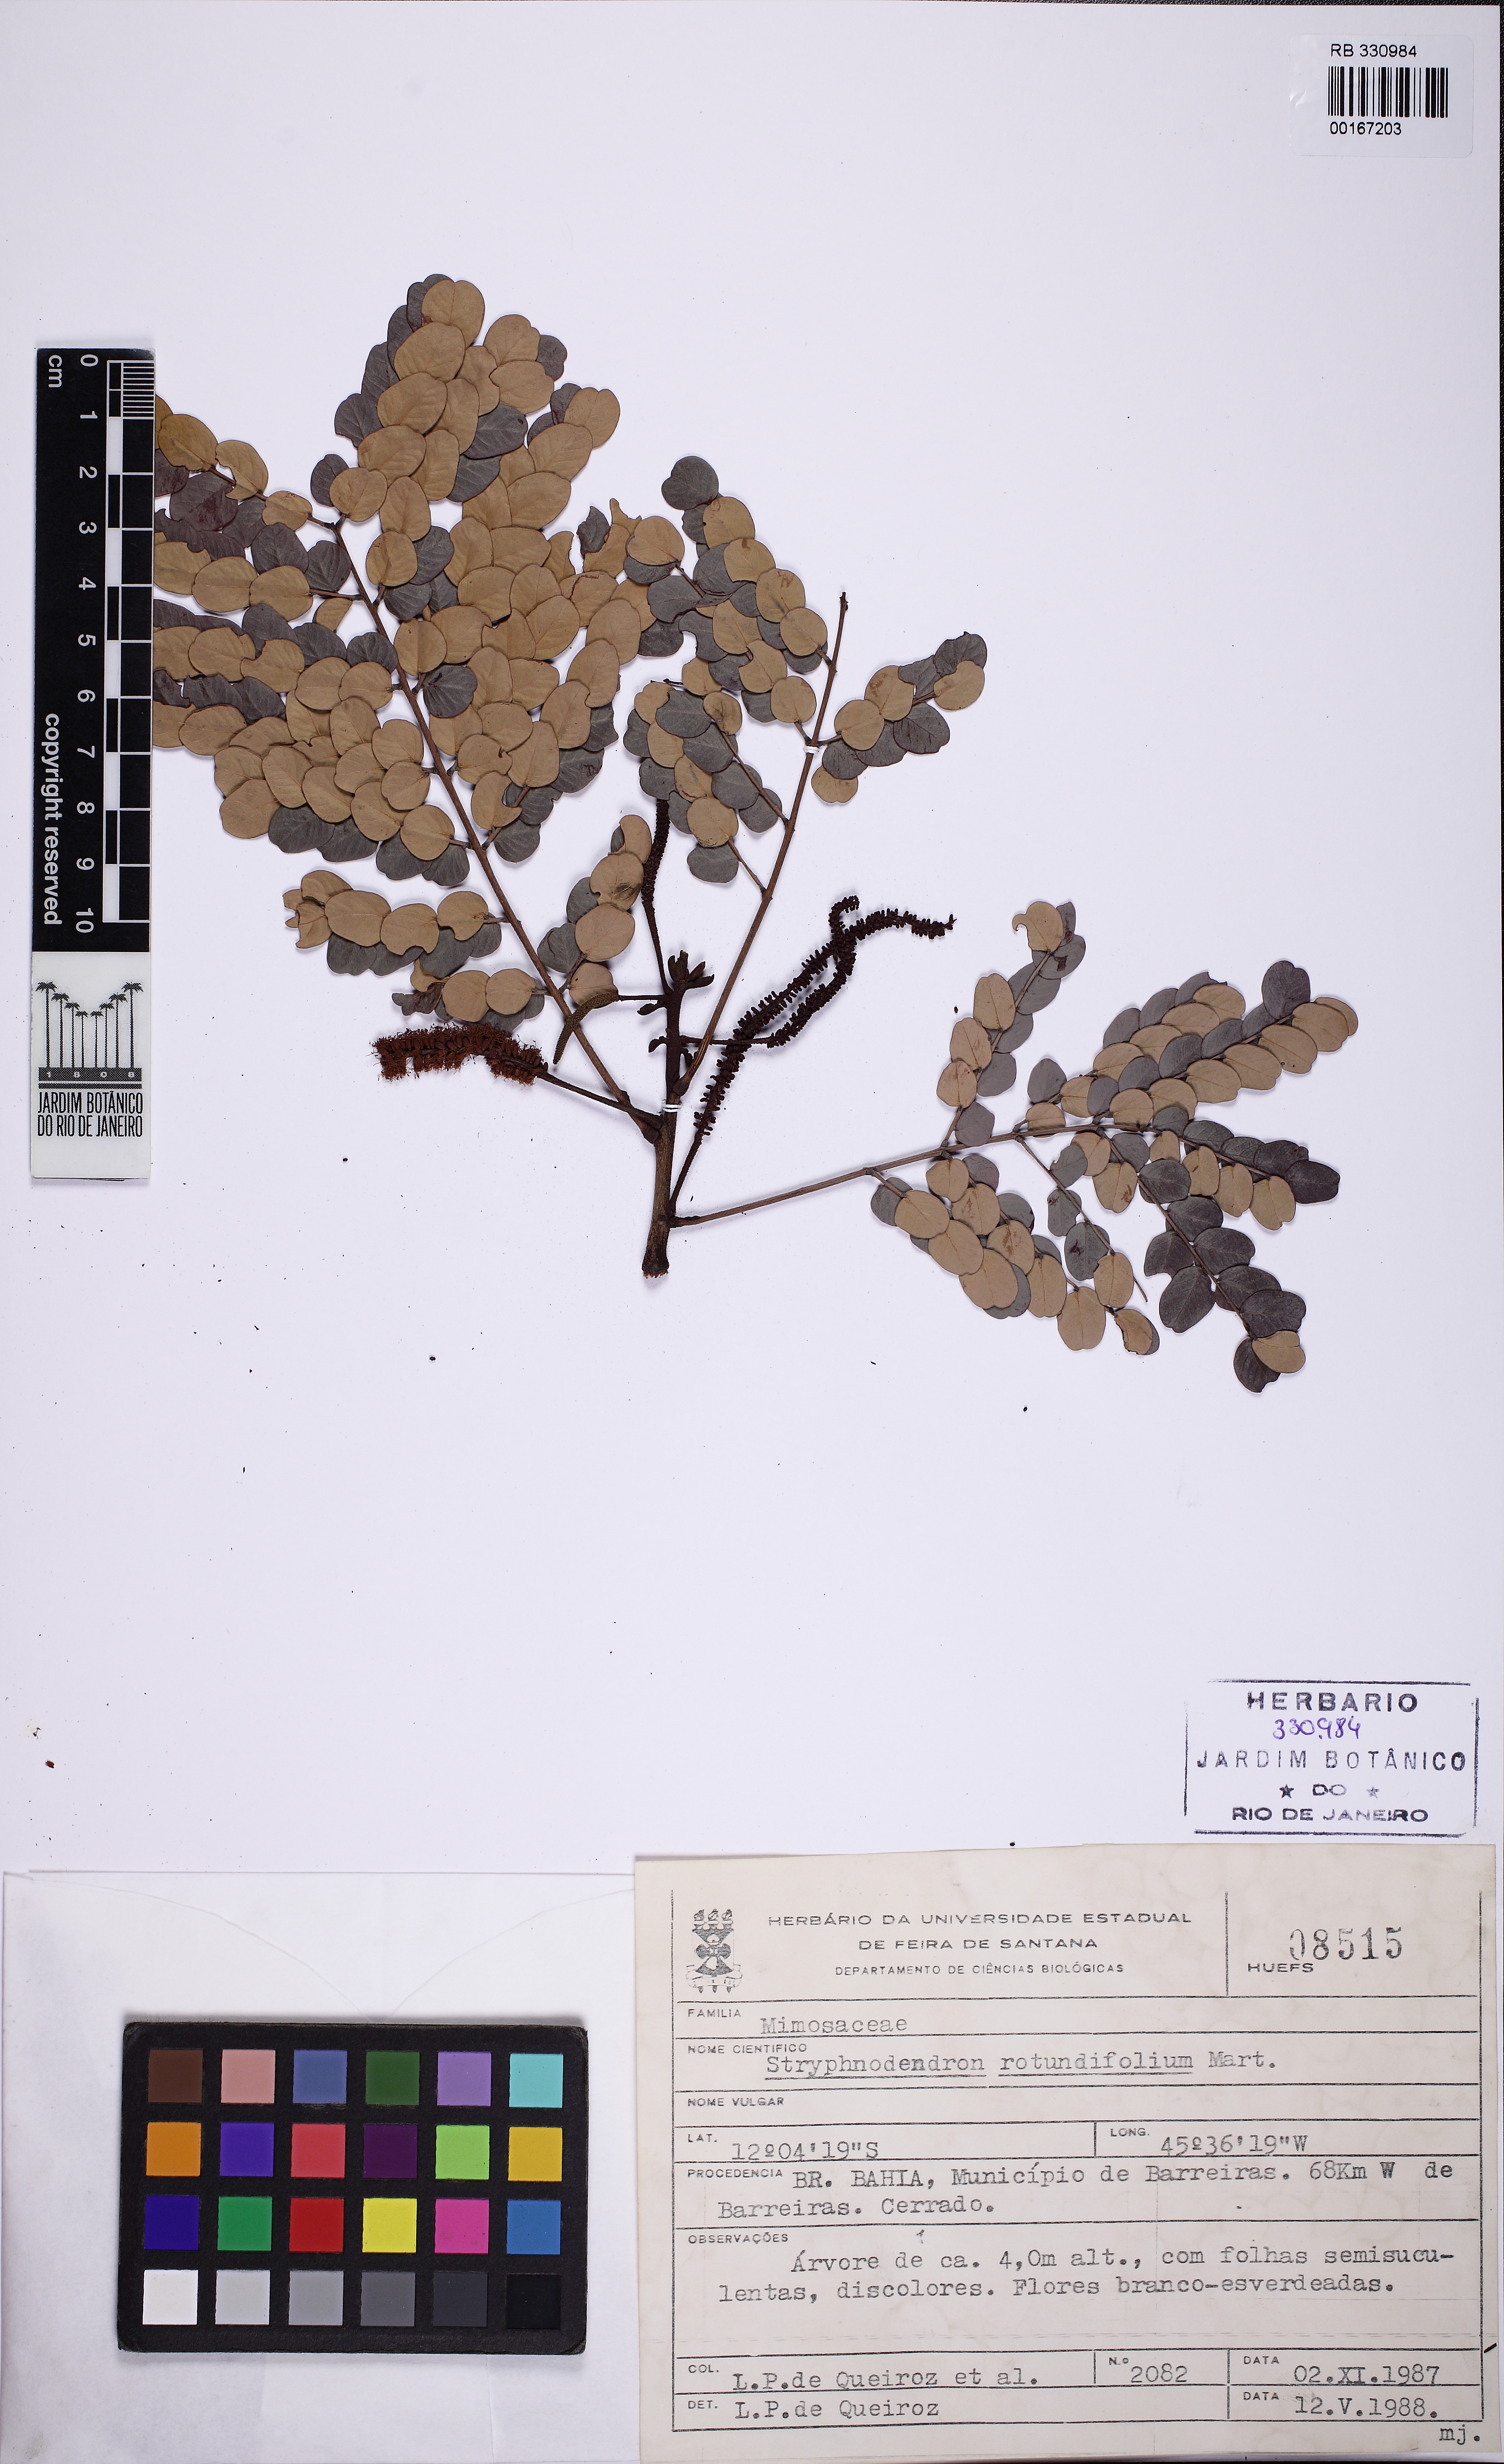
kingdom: Plantae
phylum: Tracheophyta
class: Magnoliopsida
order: Fabales
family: Fabaceae
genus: Stryphnodendron
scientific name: Stryphnodendron rotundifolium
